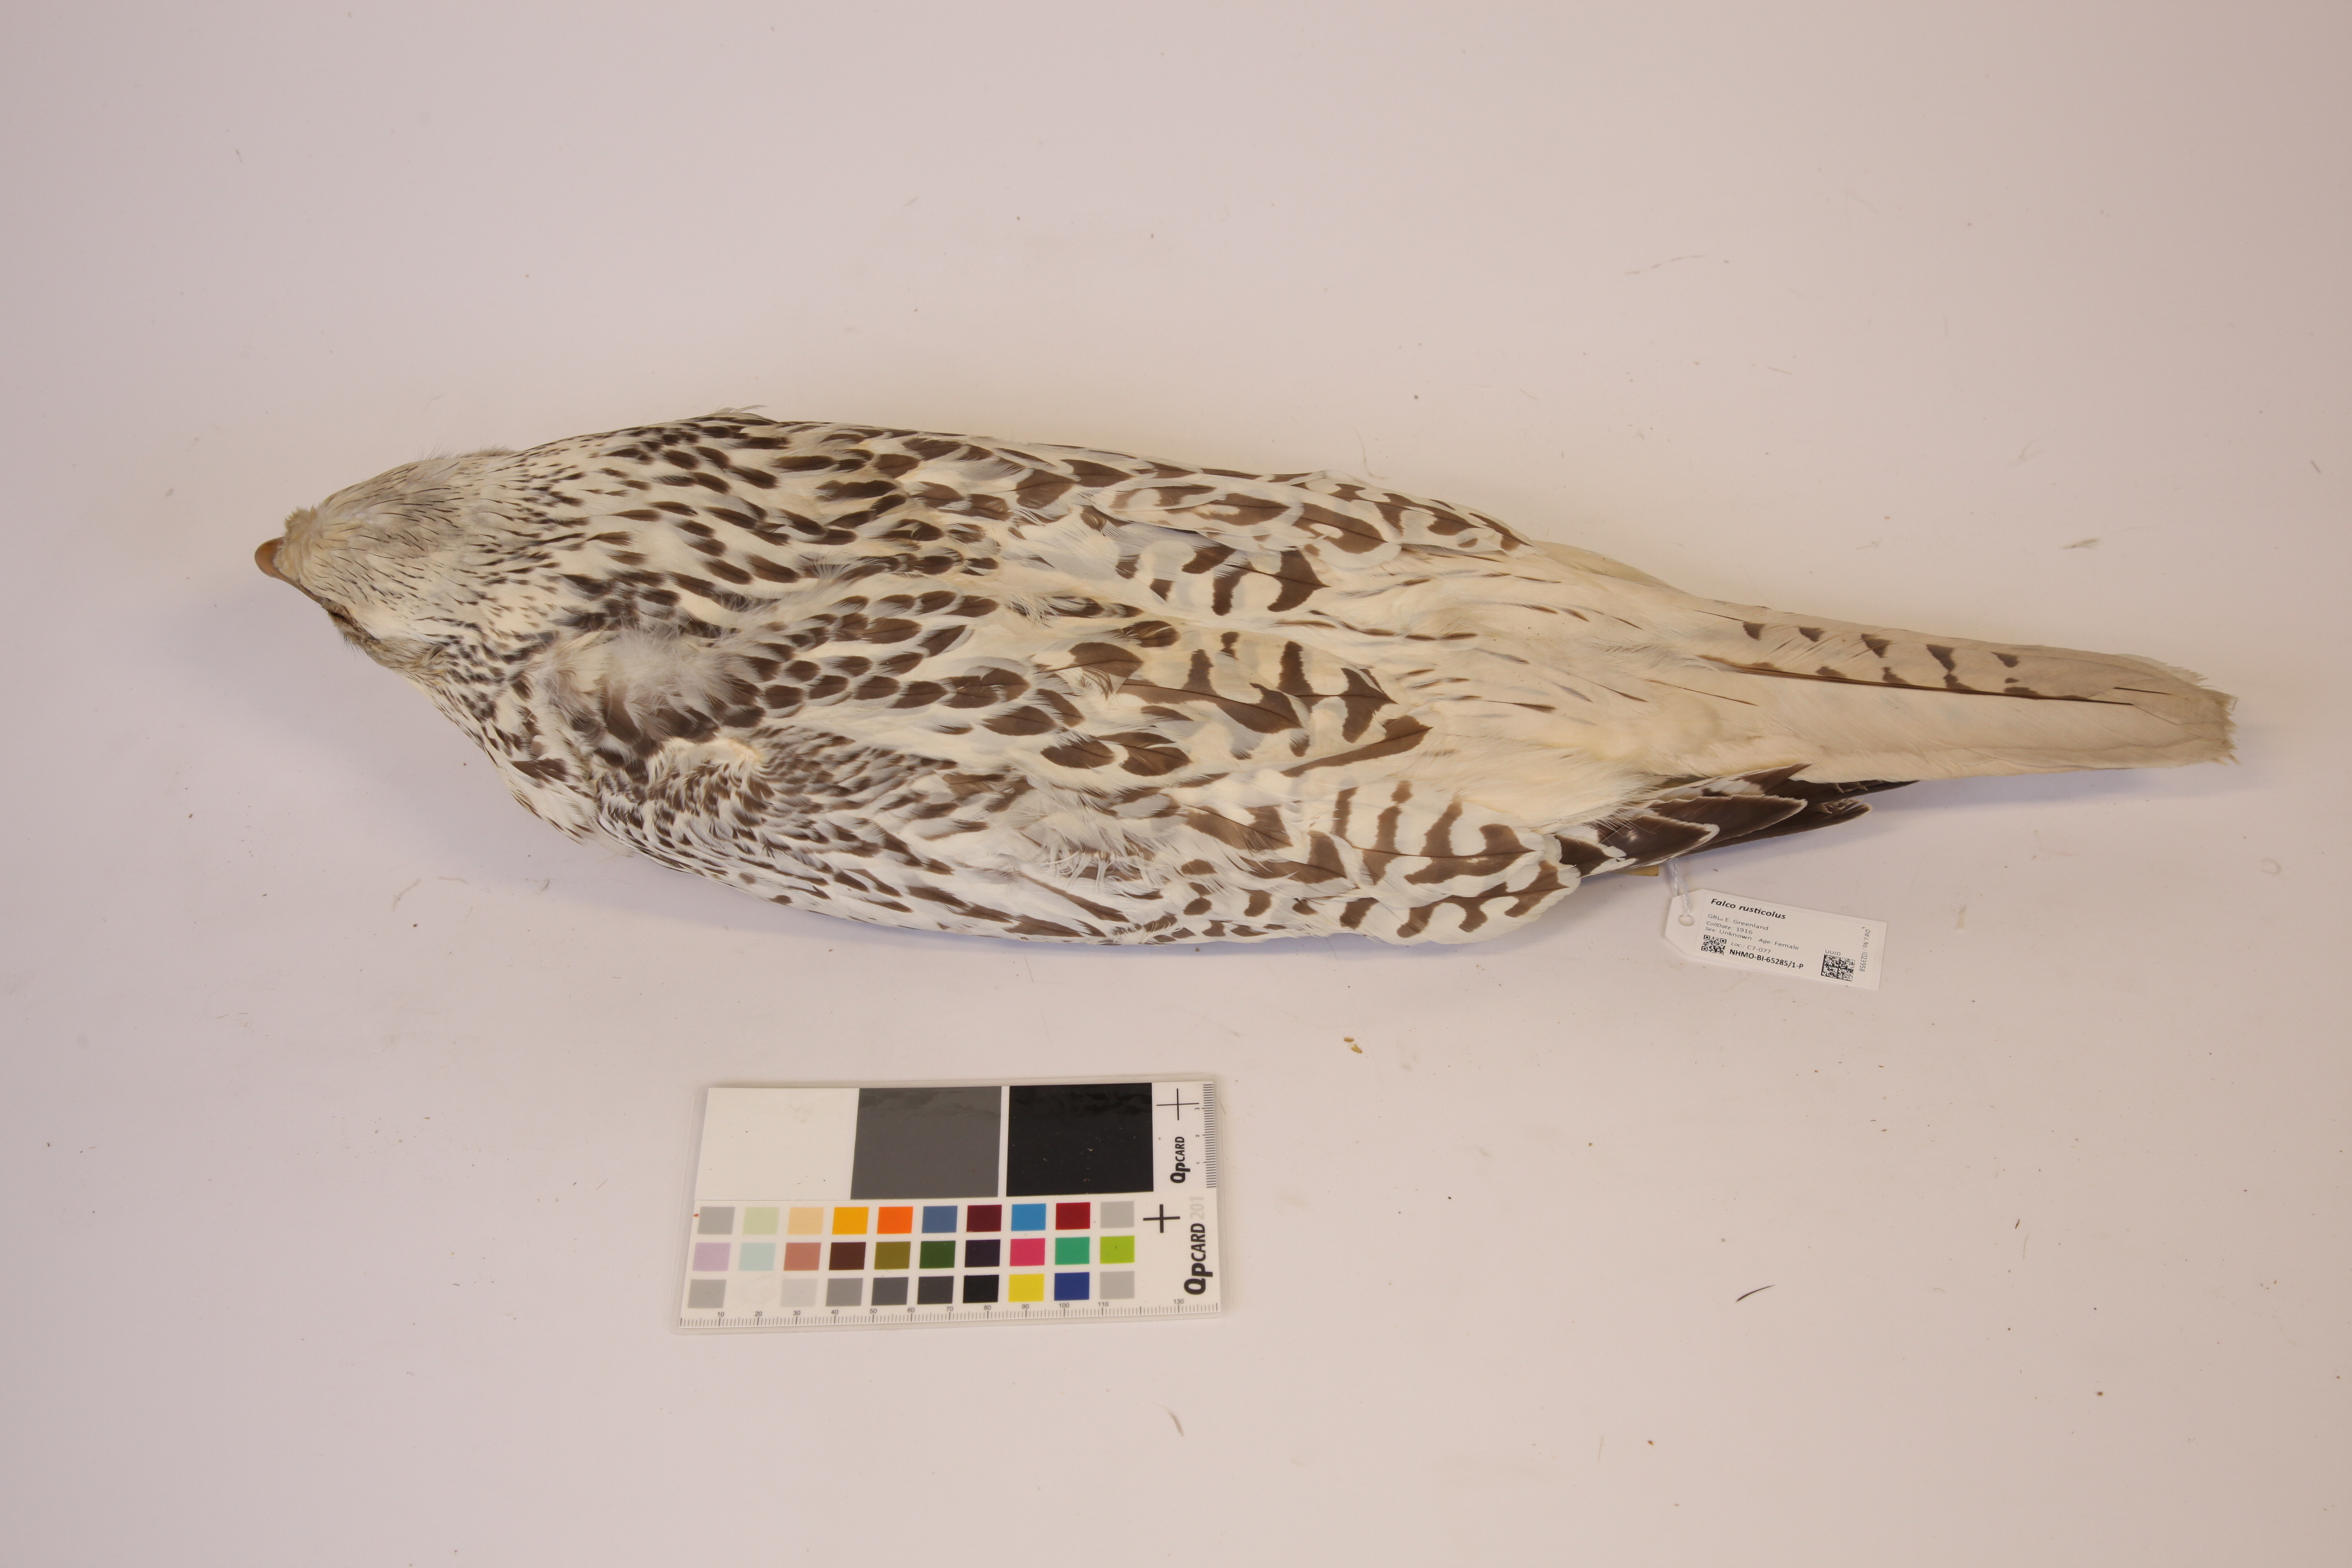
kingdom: Animalia
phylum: Chordata
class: Aves
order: Falconiformes
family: Falconidae
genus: Falco
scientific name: Falco rusticolus
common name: Gyrfalcon
